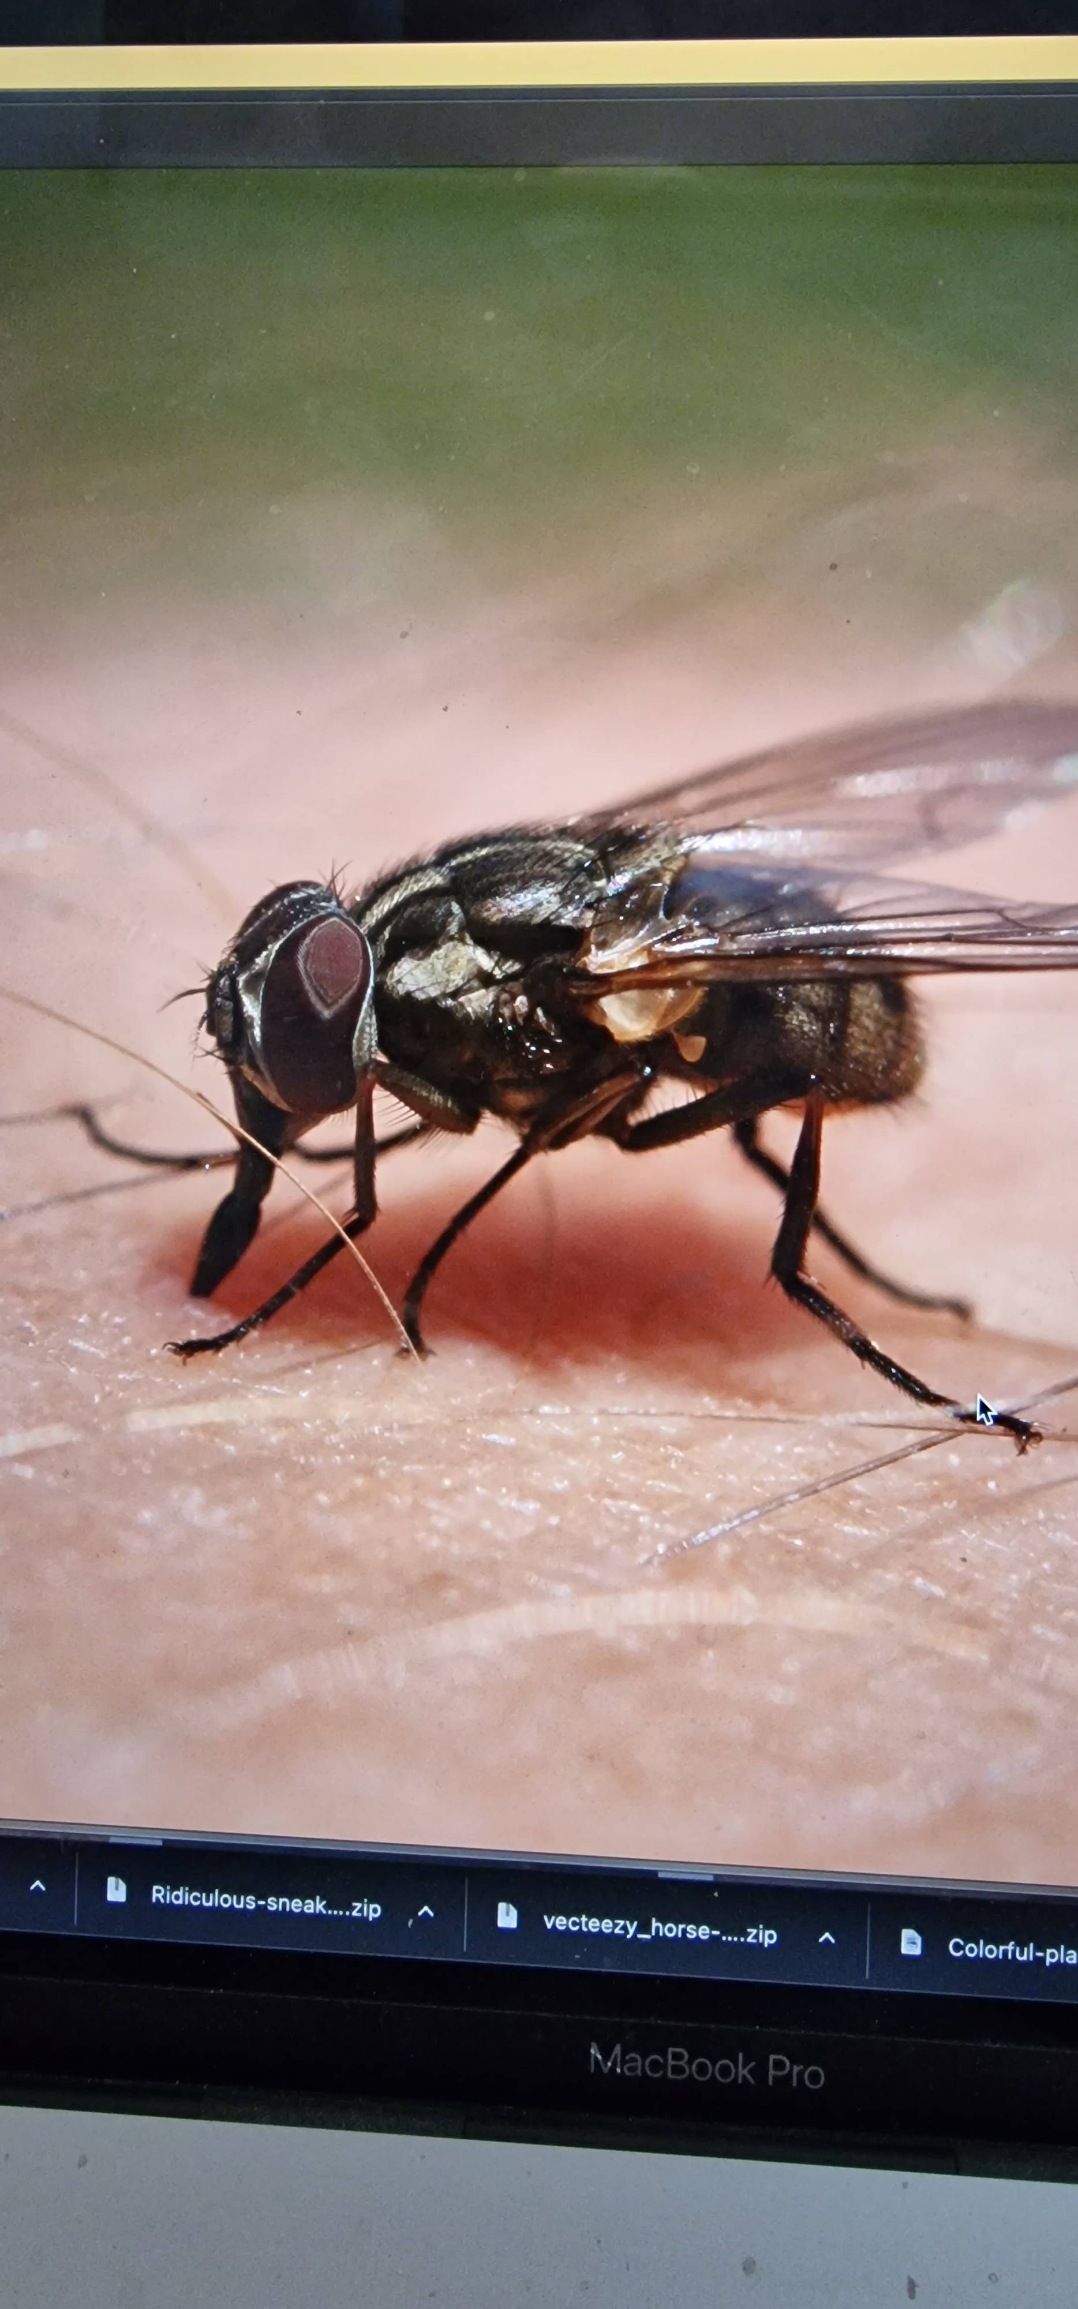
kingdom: Animalia
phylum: Arthropoda
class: Insecta
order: Diptera
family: Muscidae
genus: Musca
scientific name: Musca autumnalis
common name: Kvægflue
